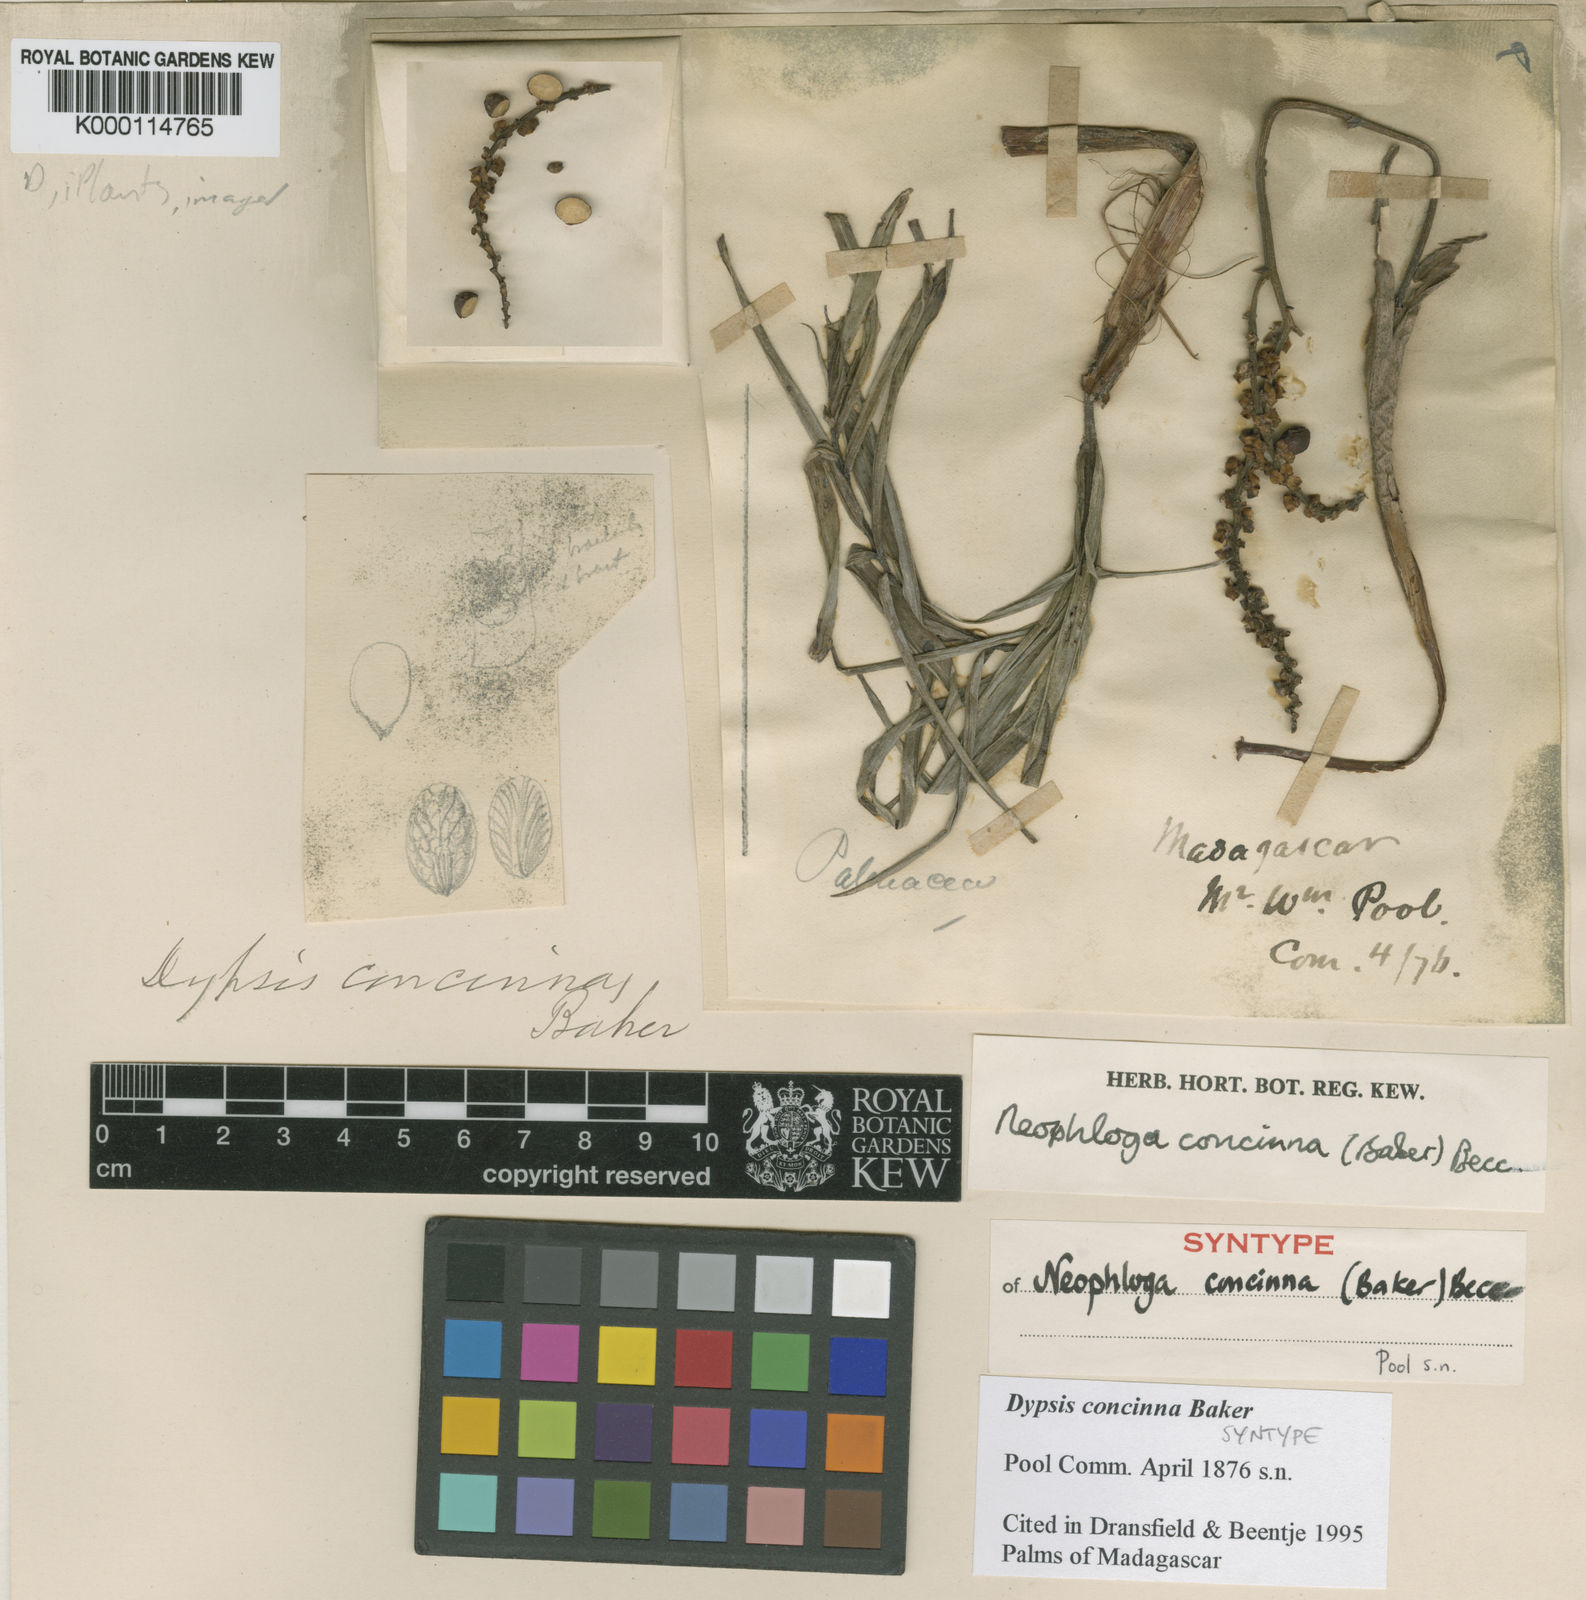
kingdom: Plantae
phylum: Tracheophyta
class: Liliopsida
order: Arecales
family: Arecaceae
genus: Dypsis
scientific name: Dypsis concinna
